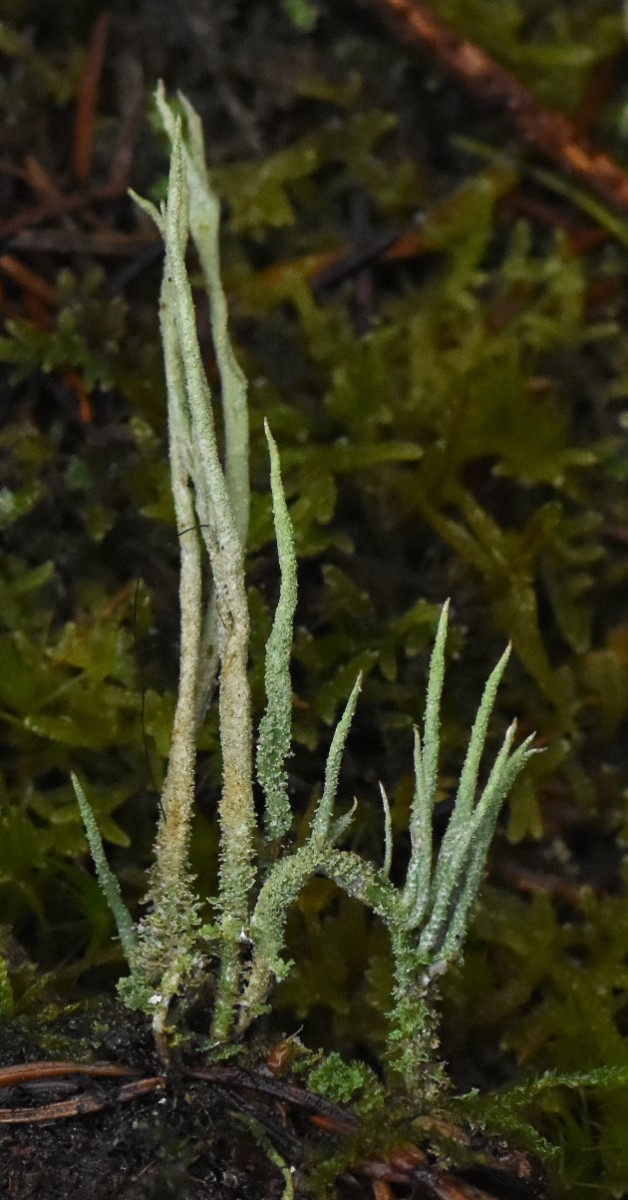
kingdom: Fungi
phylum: Ascomycota
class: Lecanoromycetes
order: Lecanorales
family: Cladoniaceae
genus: Cladonia
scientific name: Cladonia glauca
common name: grågrøn bægerlav
